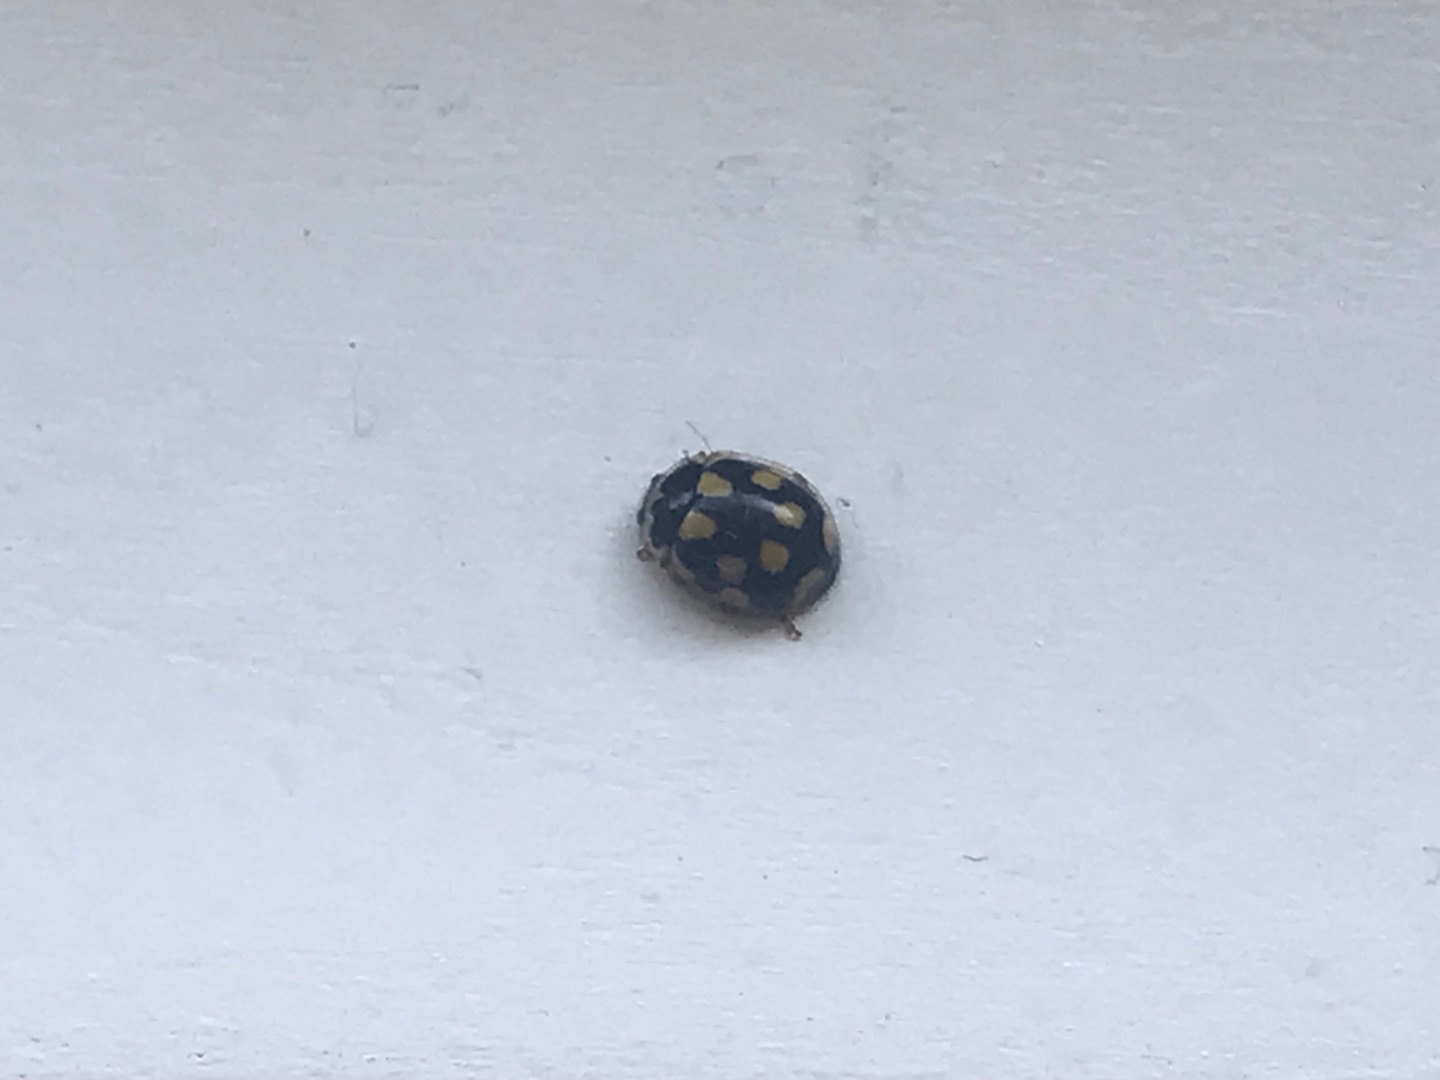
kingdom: Animalia
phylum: Arthropoda
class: Insecta
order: Coleoptera
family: Coccinellidae
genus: Propylaea
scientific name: Propylaea quatuordecimpunctata
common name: Skakbræt
